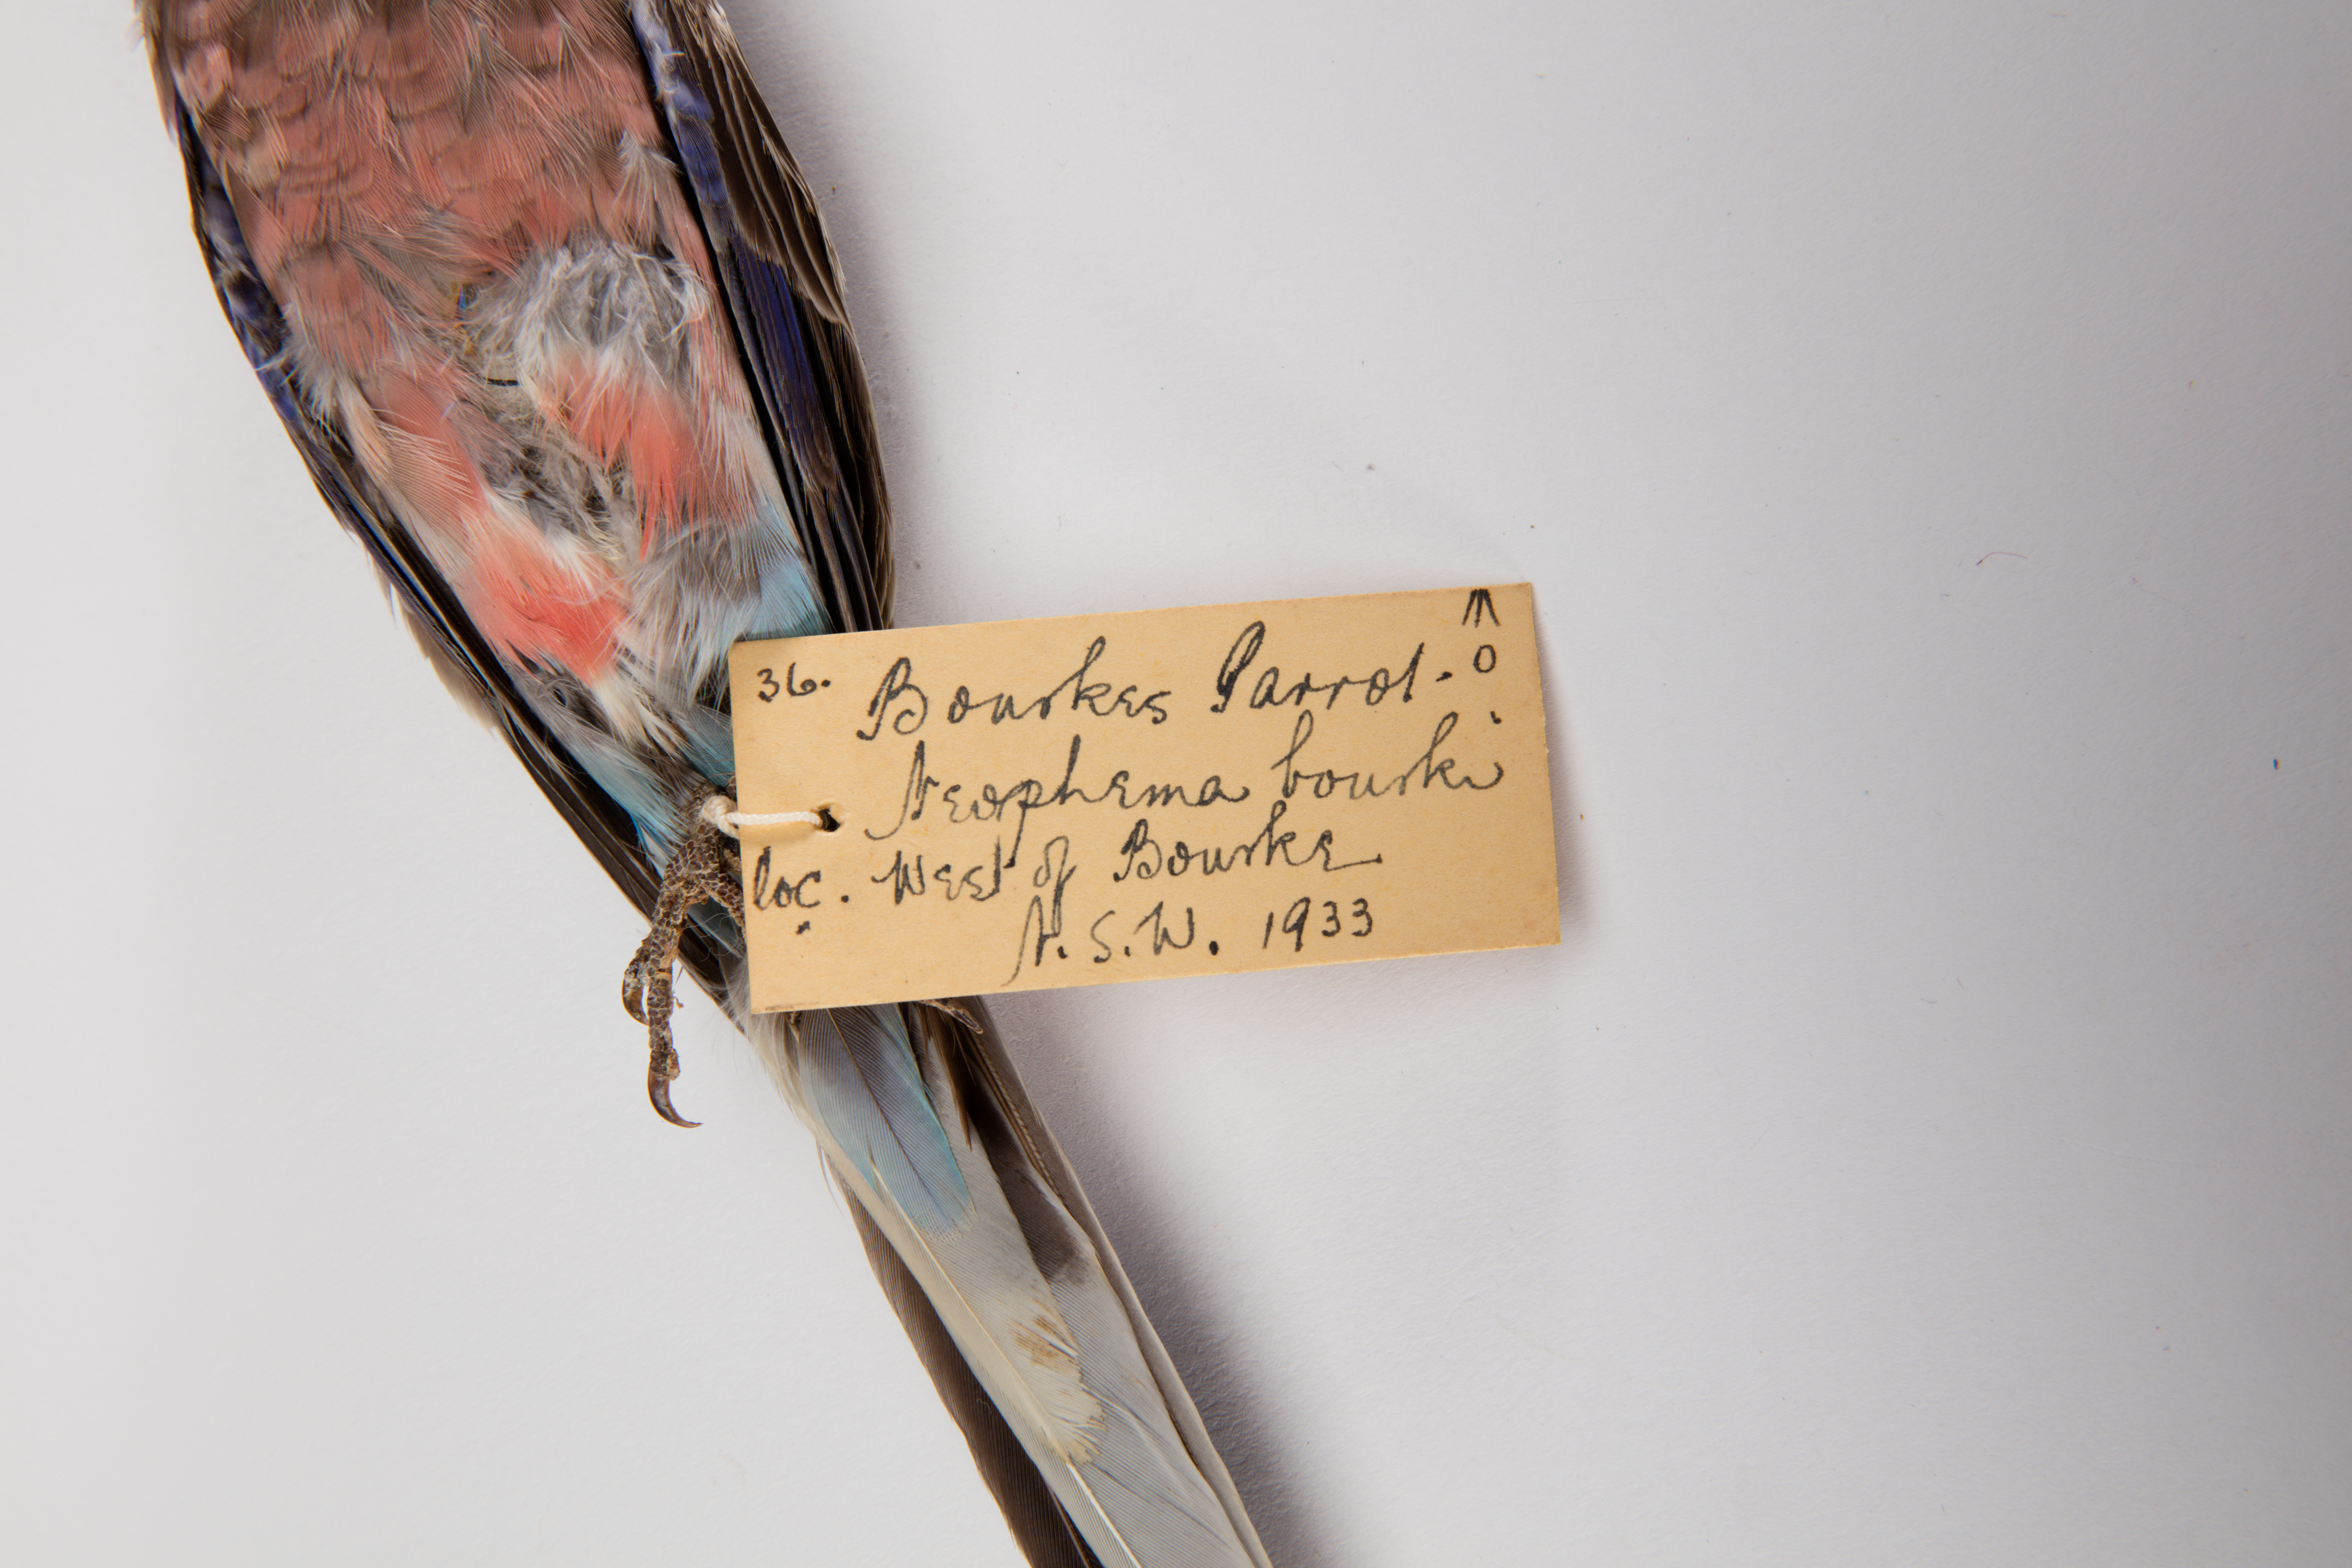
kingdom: Animalia
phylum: Chordata
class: Aves
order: Psittaciformes
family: Psittacidae
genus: Neopsephotus
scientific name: Neopsephotus bourkii
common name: Bourke's parrot
